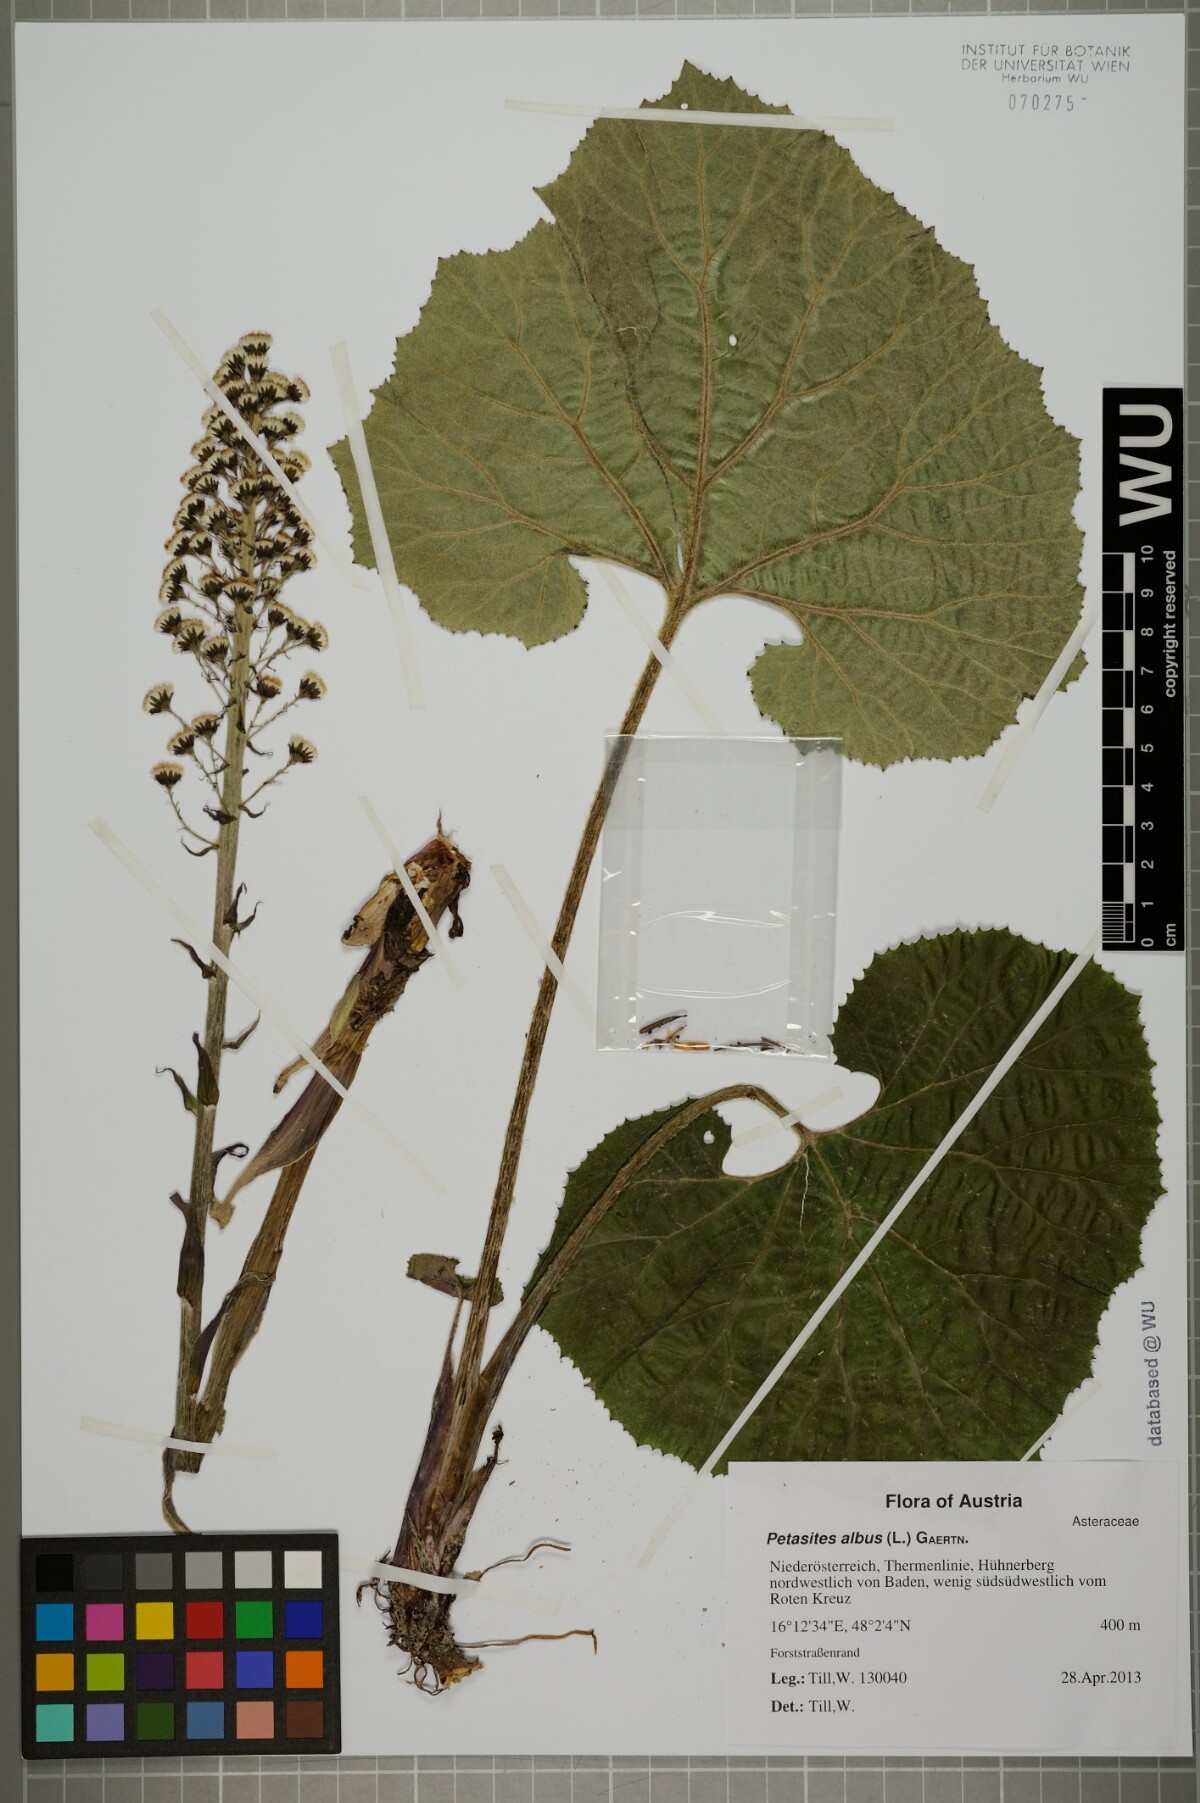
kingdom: Plantae
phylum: Tracheophyta
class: Magnoliopsida
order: Asterales
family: Asteraceae
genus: Petasites
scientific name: Petasites albus
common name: White butterbur
